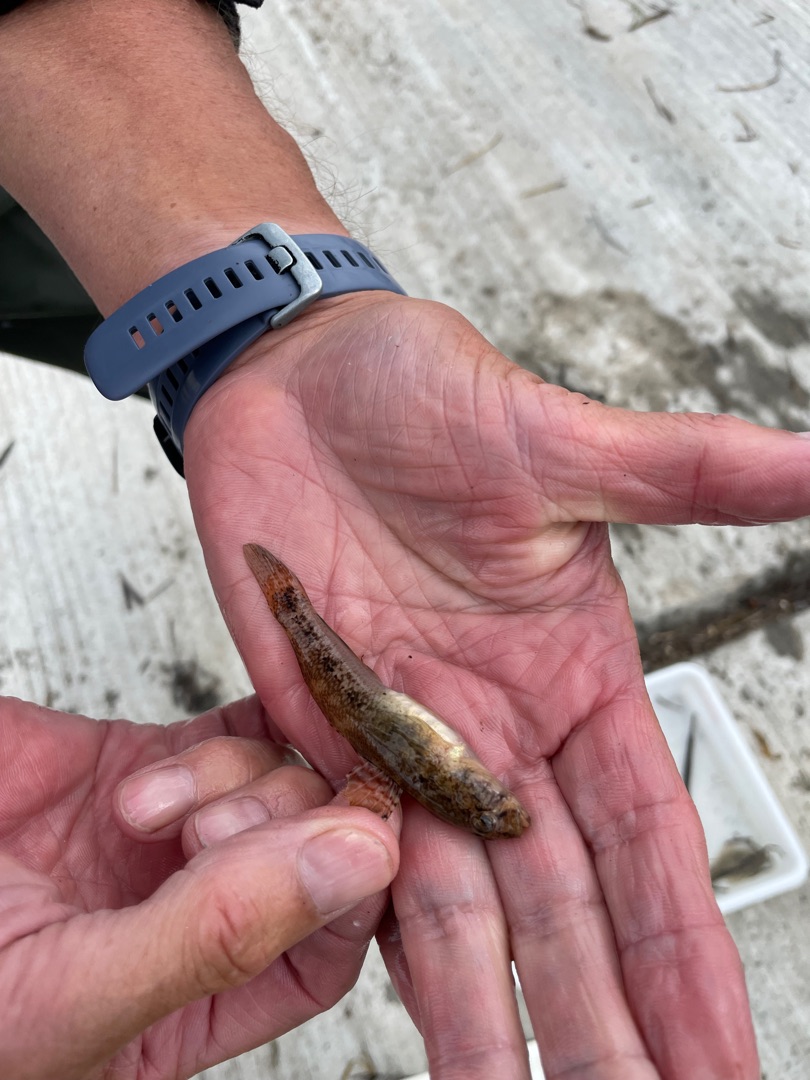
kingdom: Animalia
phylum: Chordata
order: Perciformes
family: Gobiidae
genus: Gobius
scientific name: Gobius niger
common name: Sortkutling
